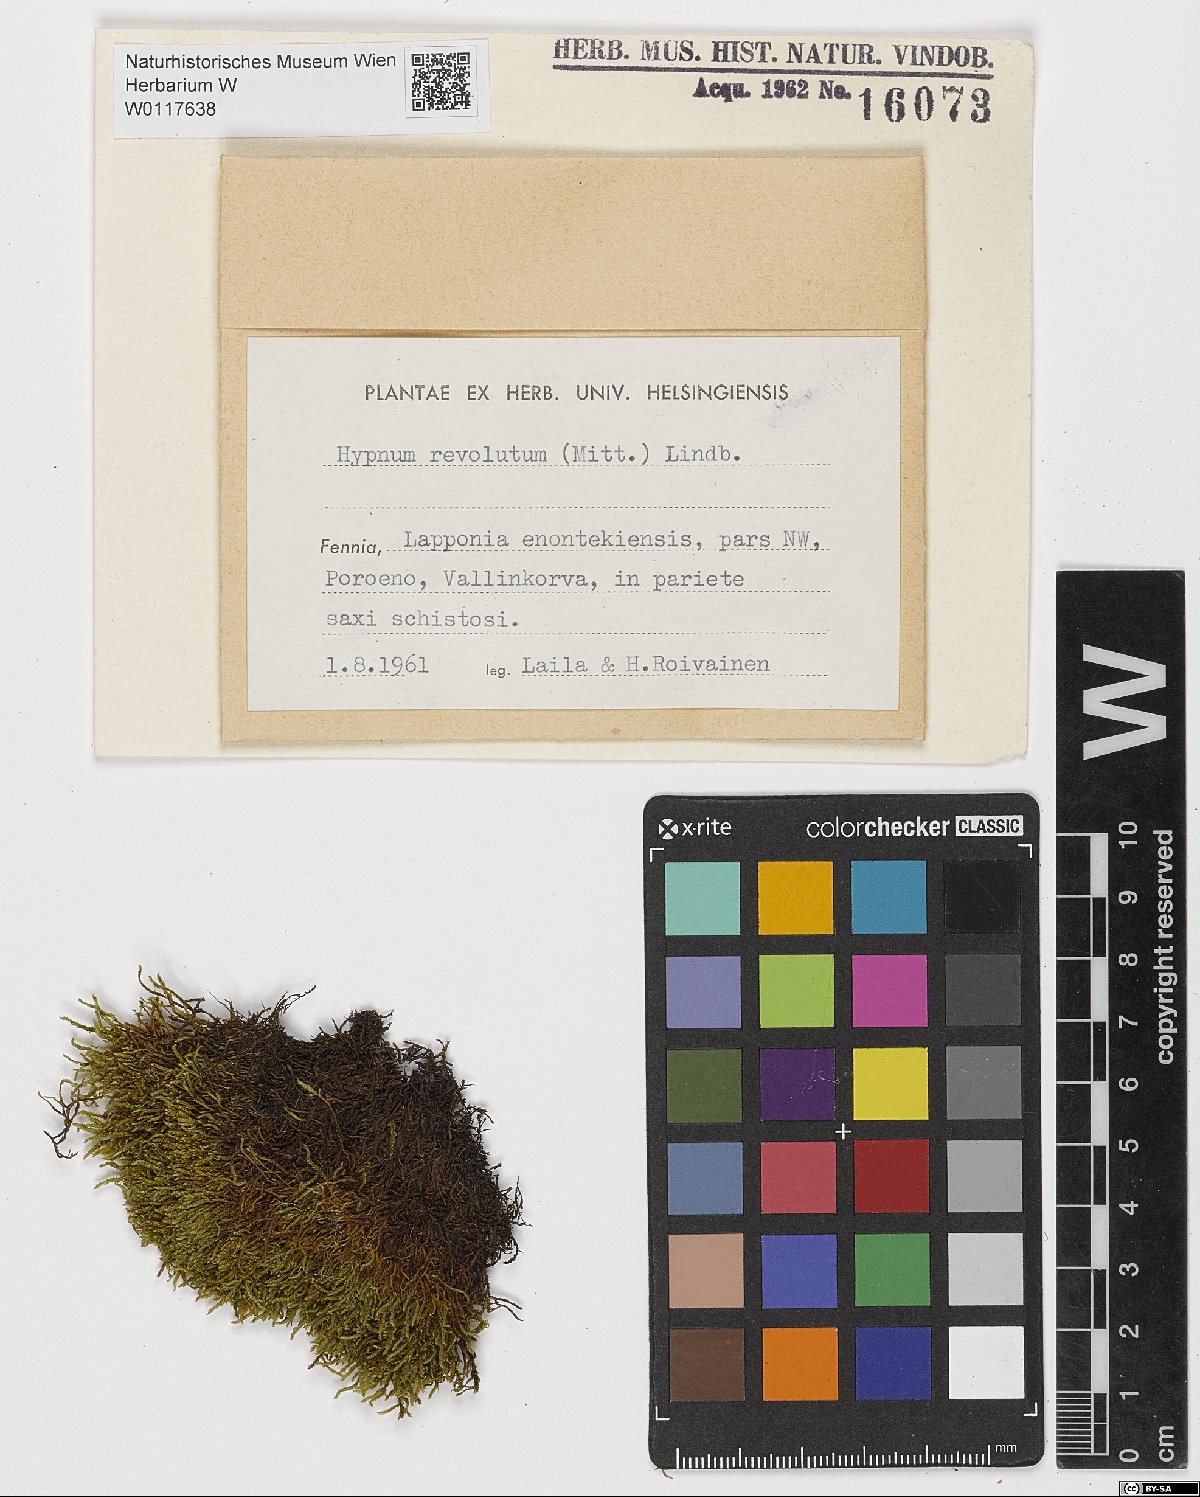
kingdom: Plantae
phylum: Bryophyta
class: Bryopsida
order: Hypnales
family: Pylaisiaceae
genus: Roaldia
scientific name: Roaldia revoluta
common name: Revolute plait-moss
